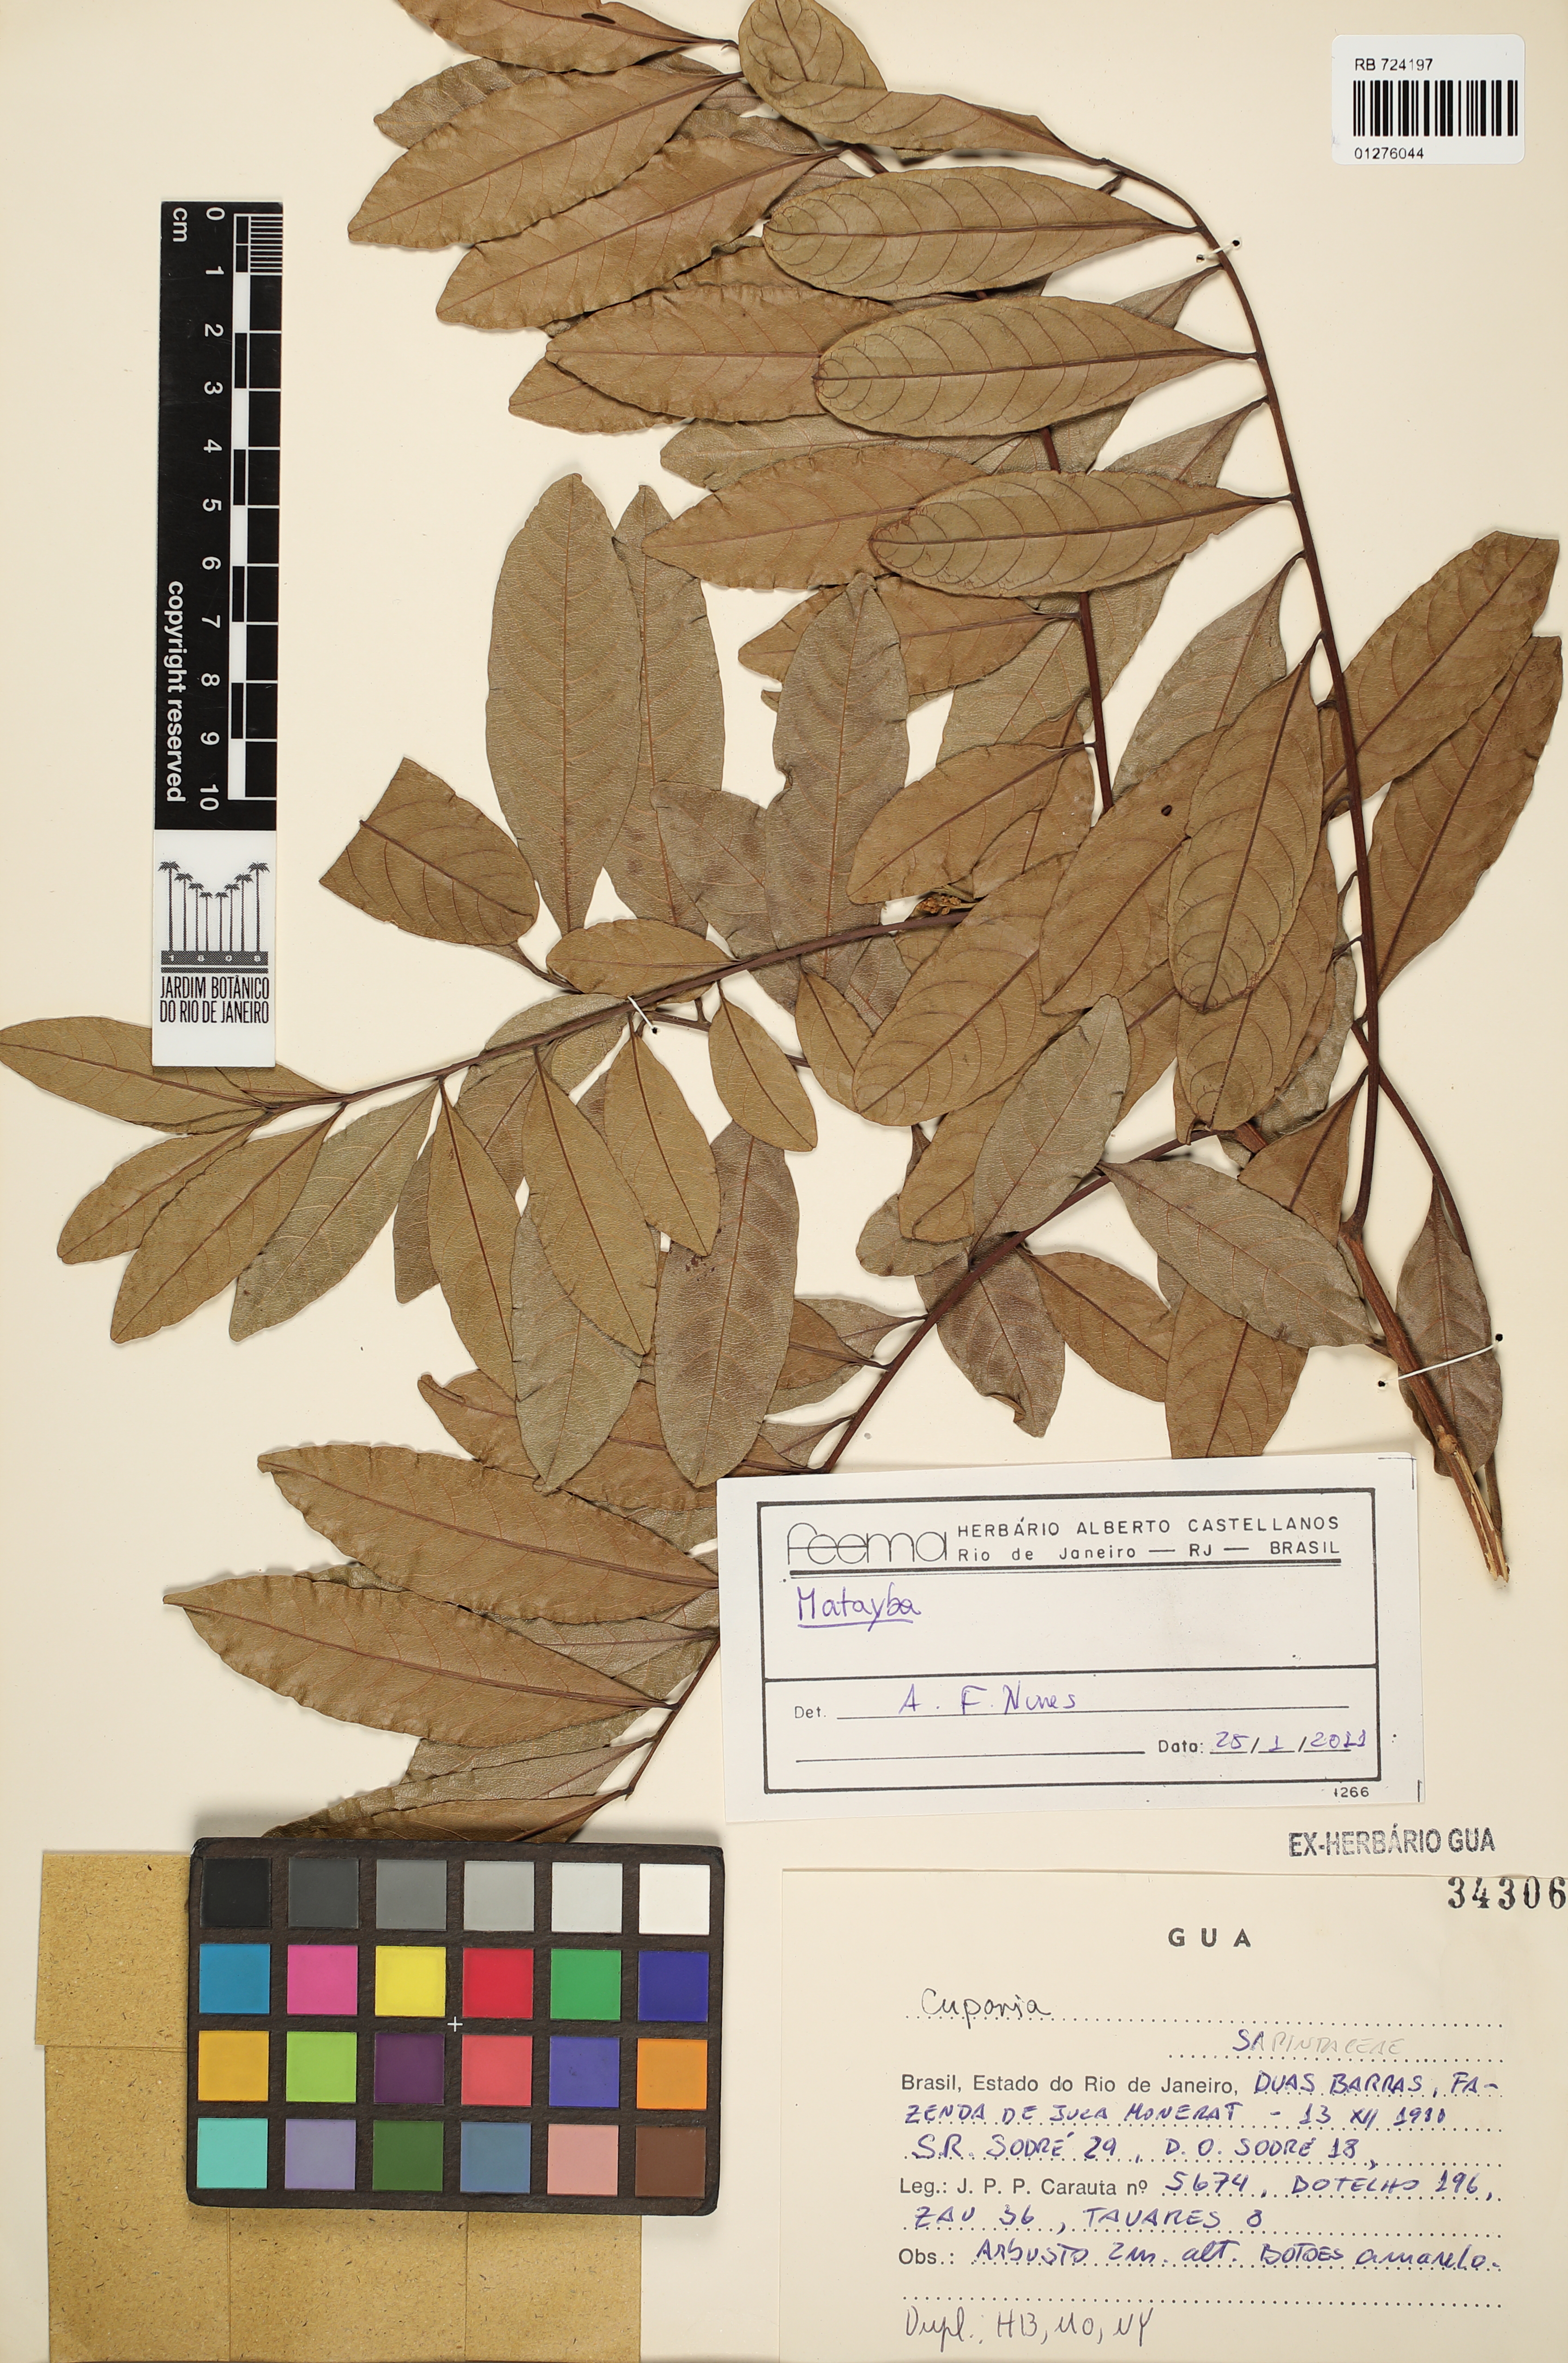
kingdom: Plantae
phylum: Tracheophyta
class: Magnoliopsida
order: Sapindales
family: Sapindaceae
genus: Matayba
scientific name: Matayba
